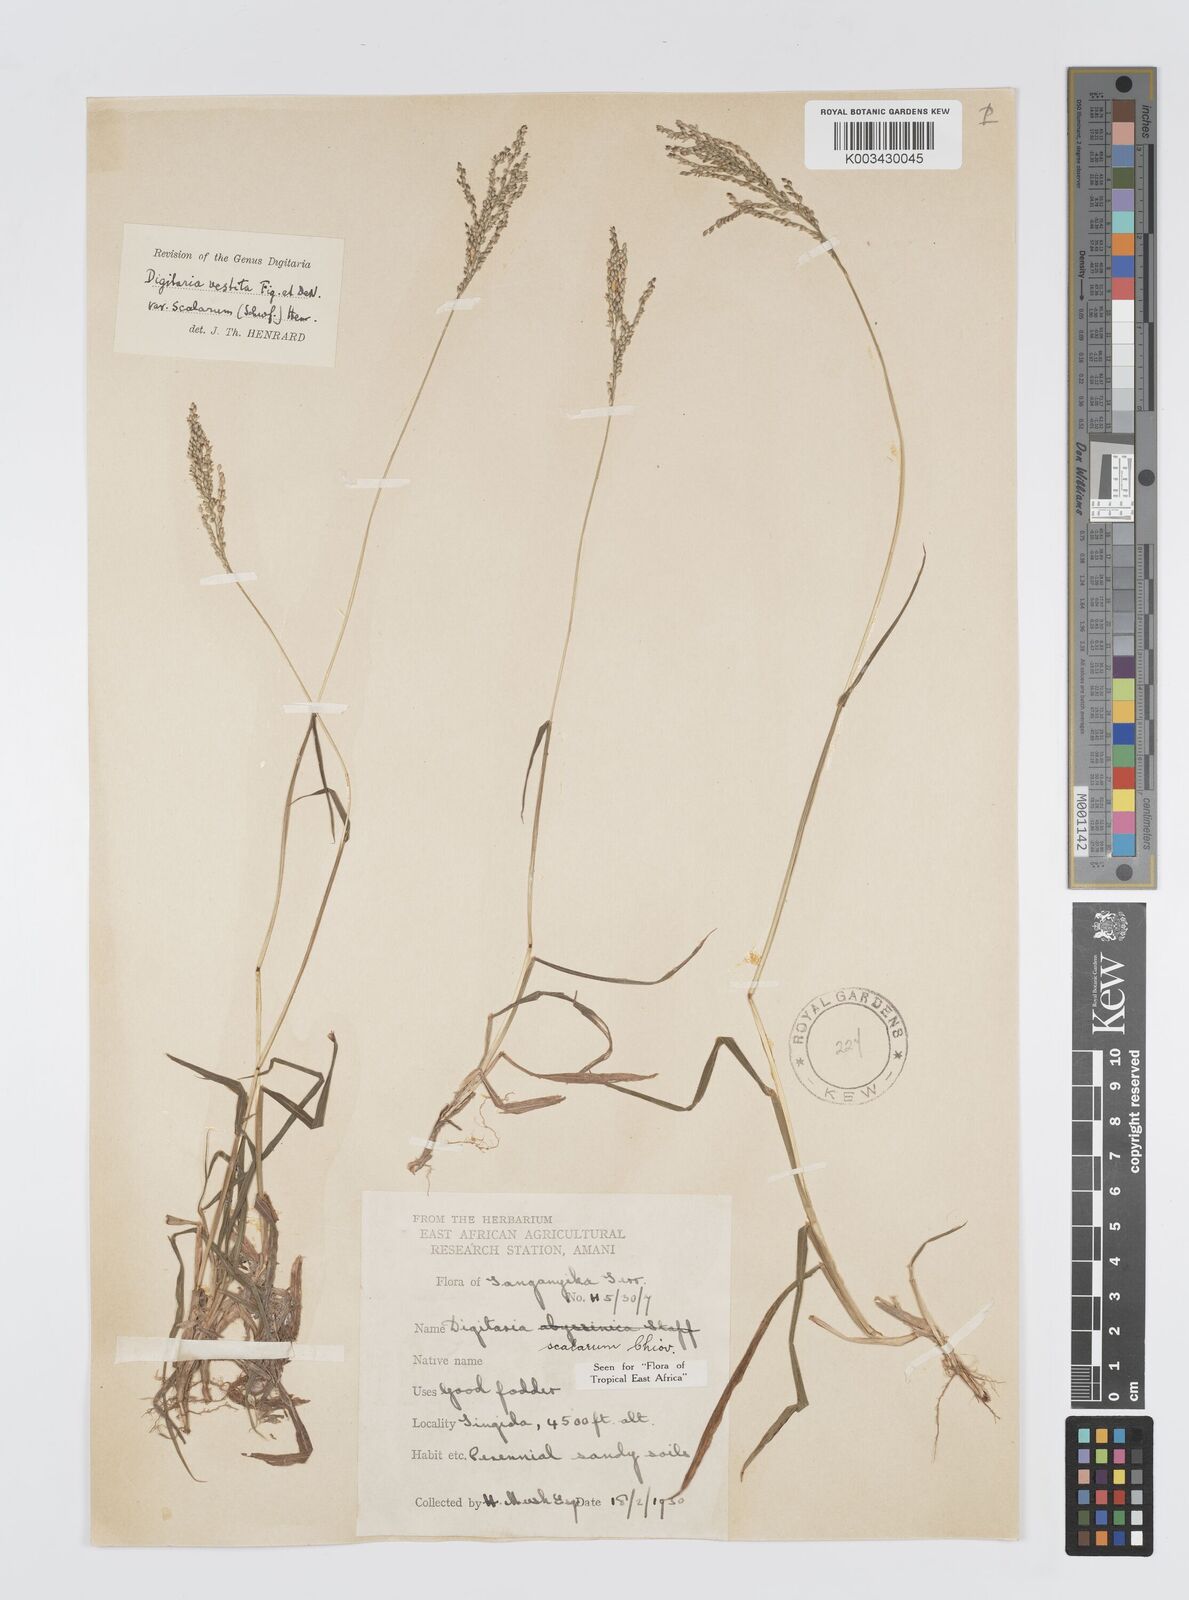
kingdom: Plantae
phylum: Tracheophyta
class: Liliopsida
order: Poales
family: Poaceae
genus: Digitaria
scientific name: Digitaria abyssinica
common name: African couchgrass
